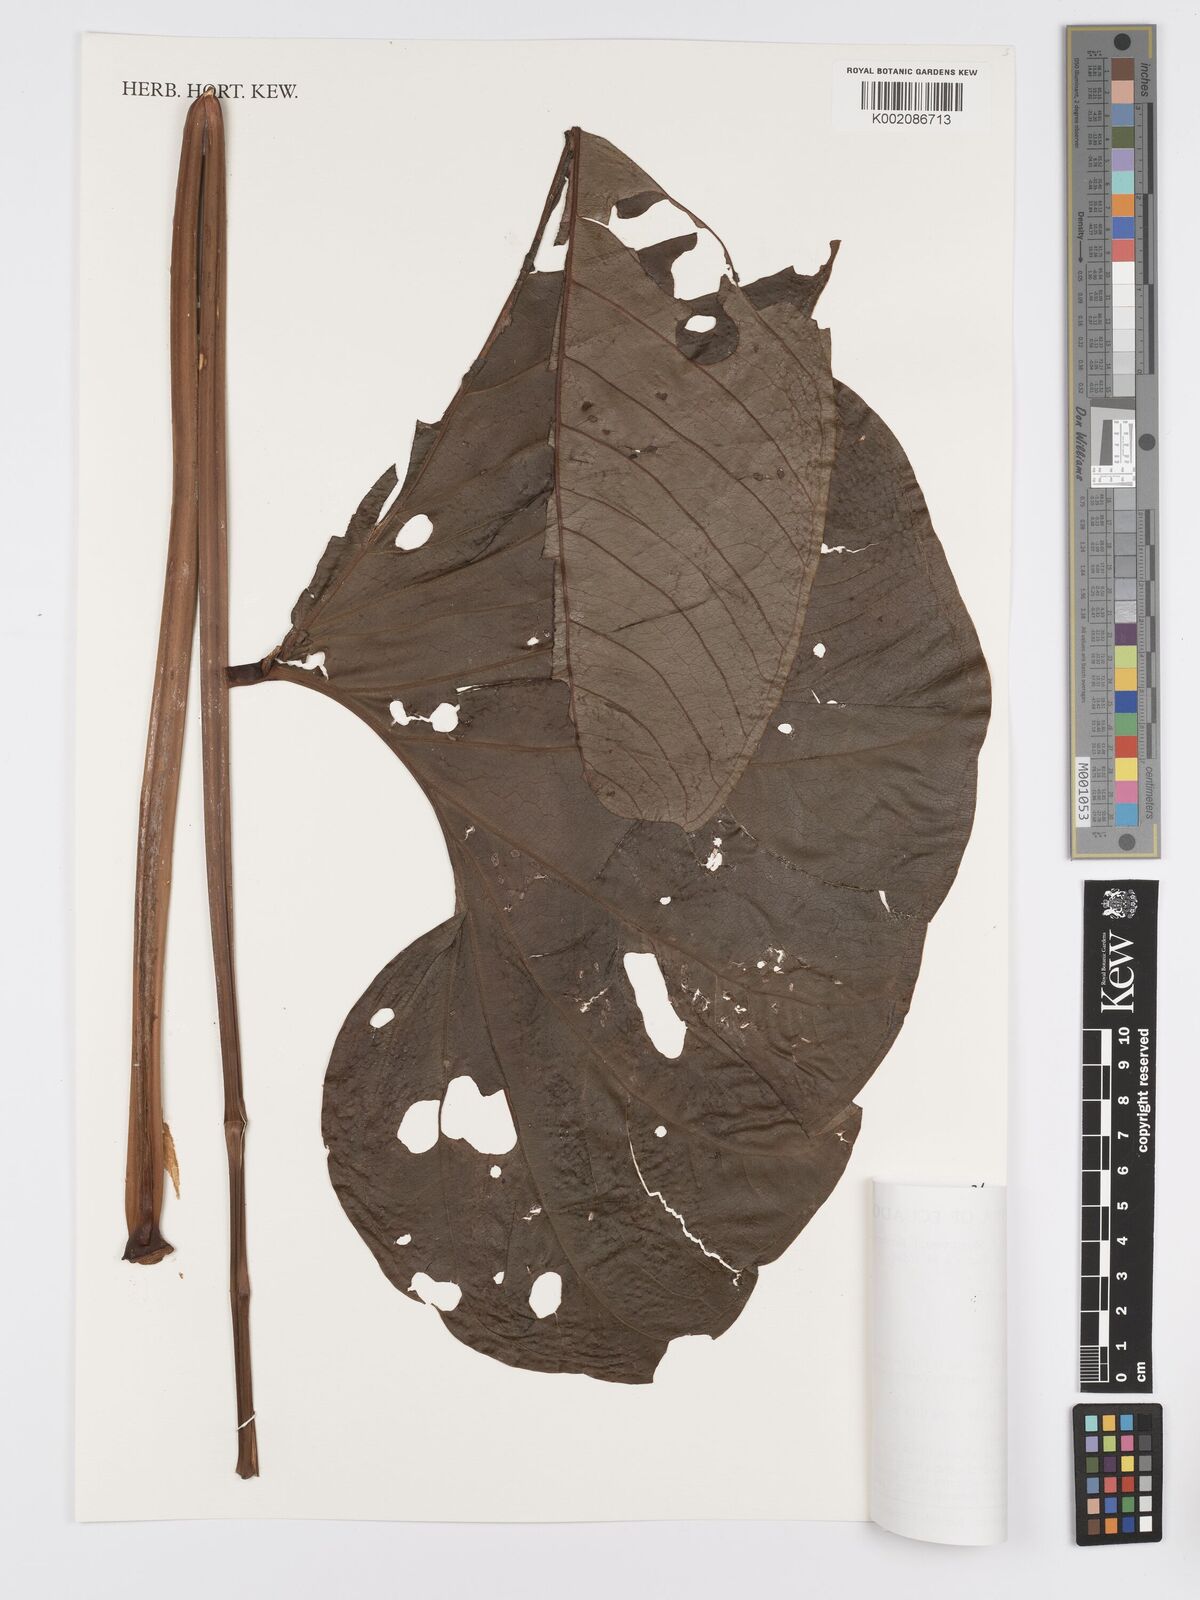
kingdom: Plantae
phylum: Tracheophyta
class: Liliopsida
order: Alismatales
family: Araceae
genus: Anthurium
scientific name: Anthurium oxybelium
